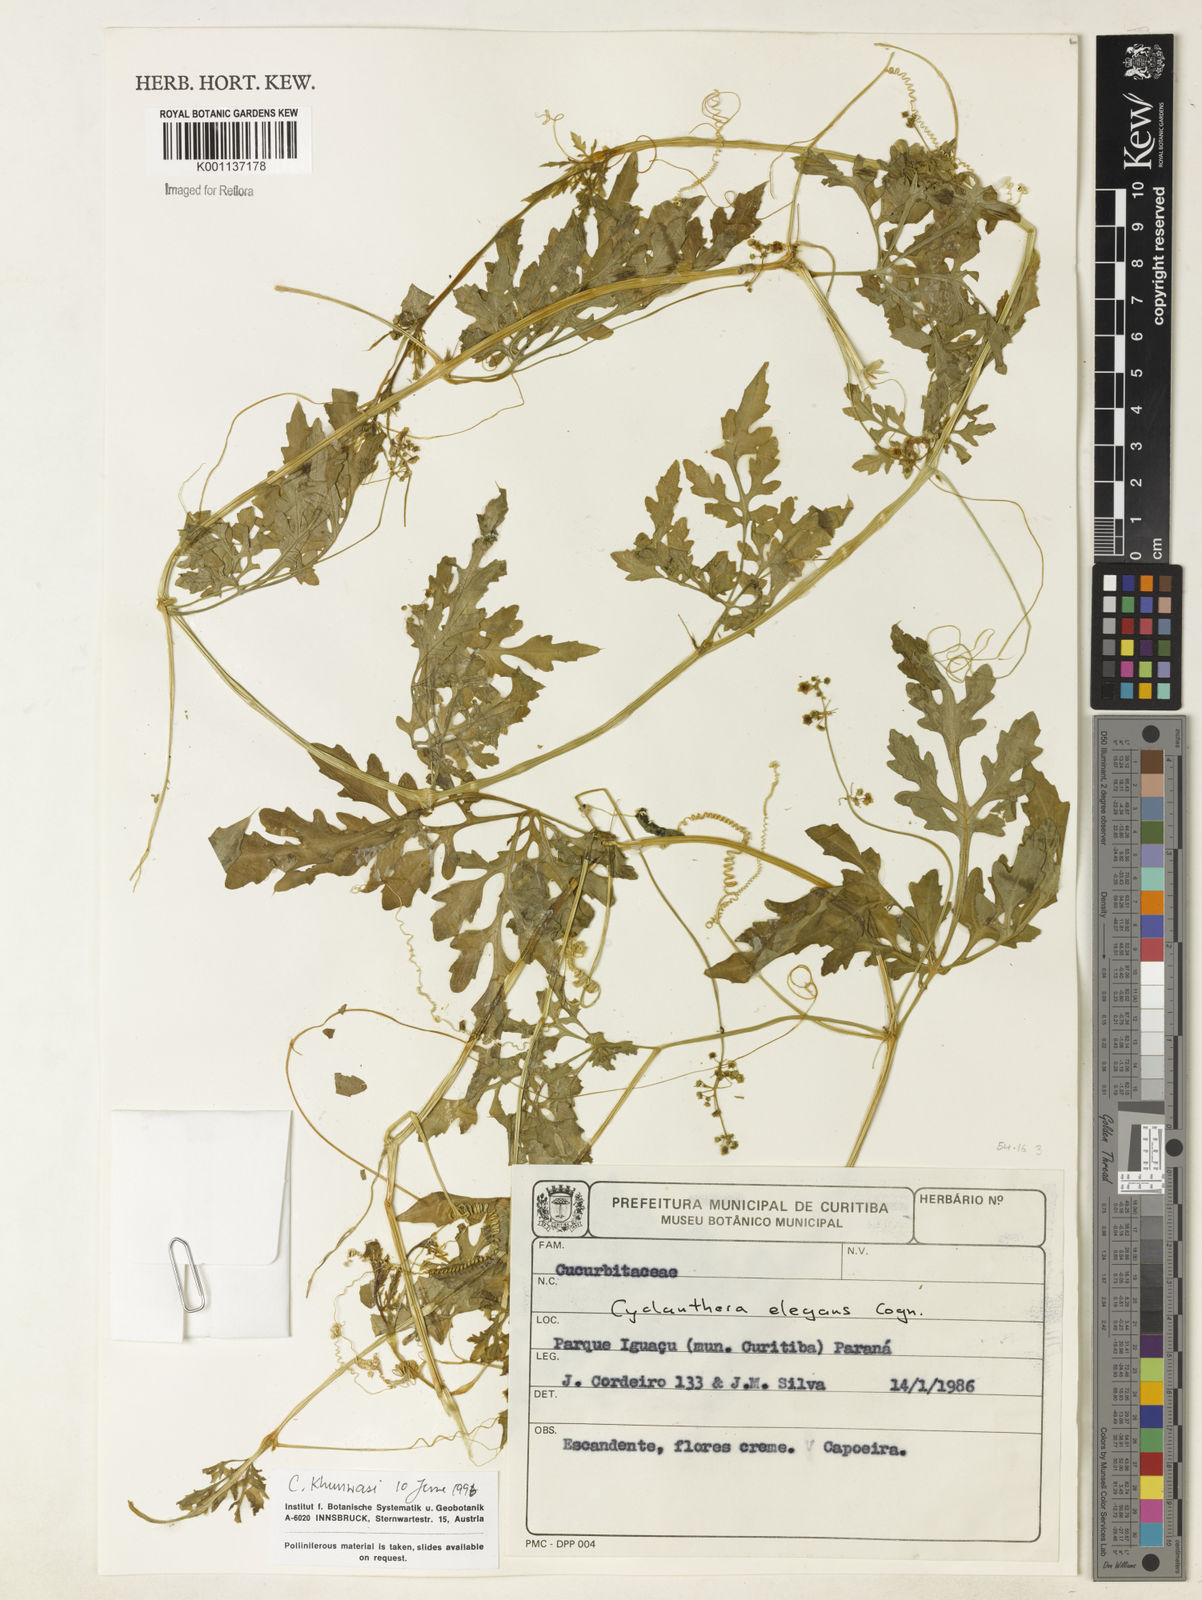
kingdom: Plantae
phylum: Tracheophyta
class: Magnoliopsida
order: Cucurbitales
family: Cucurbitaceae
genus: Cyclanthera
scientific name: Cyclanthera tenuisepala
